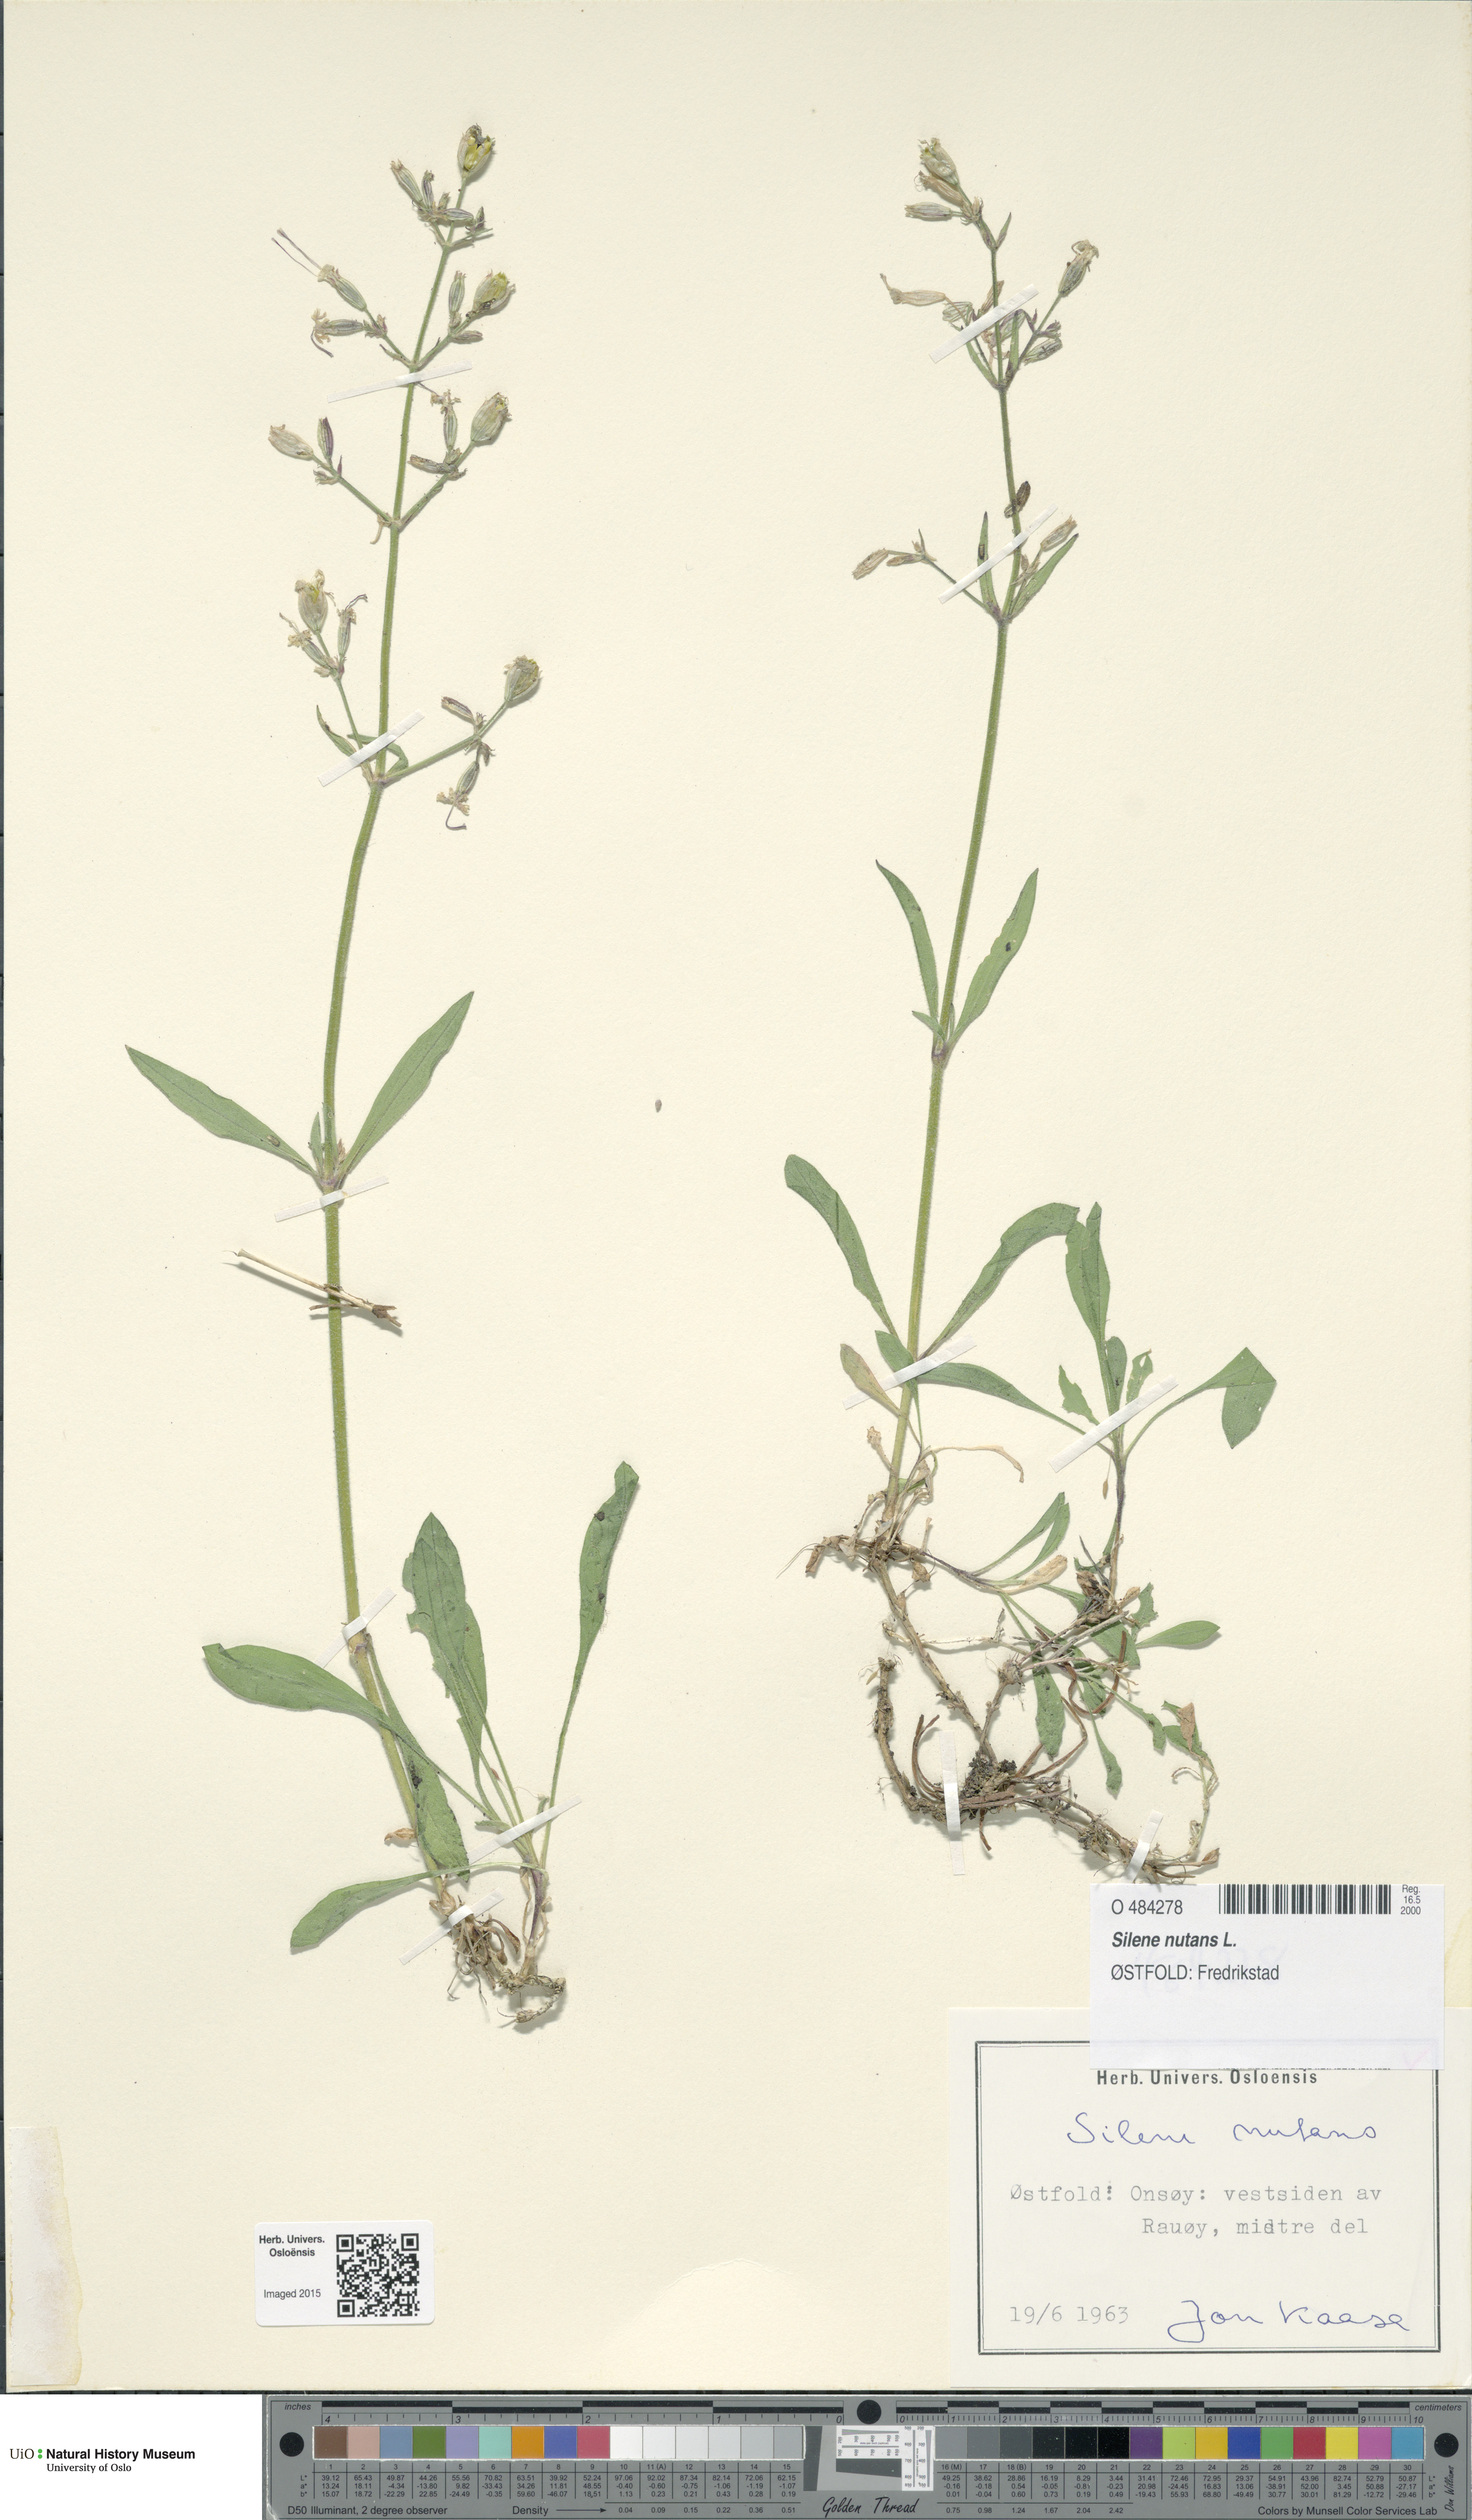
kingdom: Plantae
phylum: Tracheophyta
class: Magnoliopsida
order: Caryophyllales
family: Caryophyllaceae
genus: Silene
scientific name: Silene nutans
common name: Nottingham catchfly
